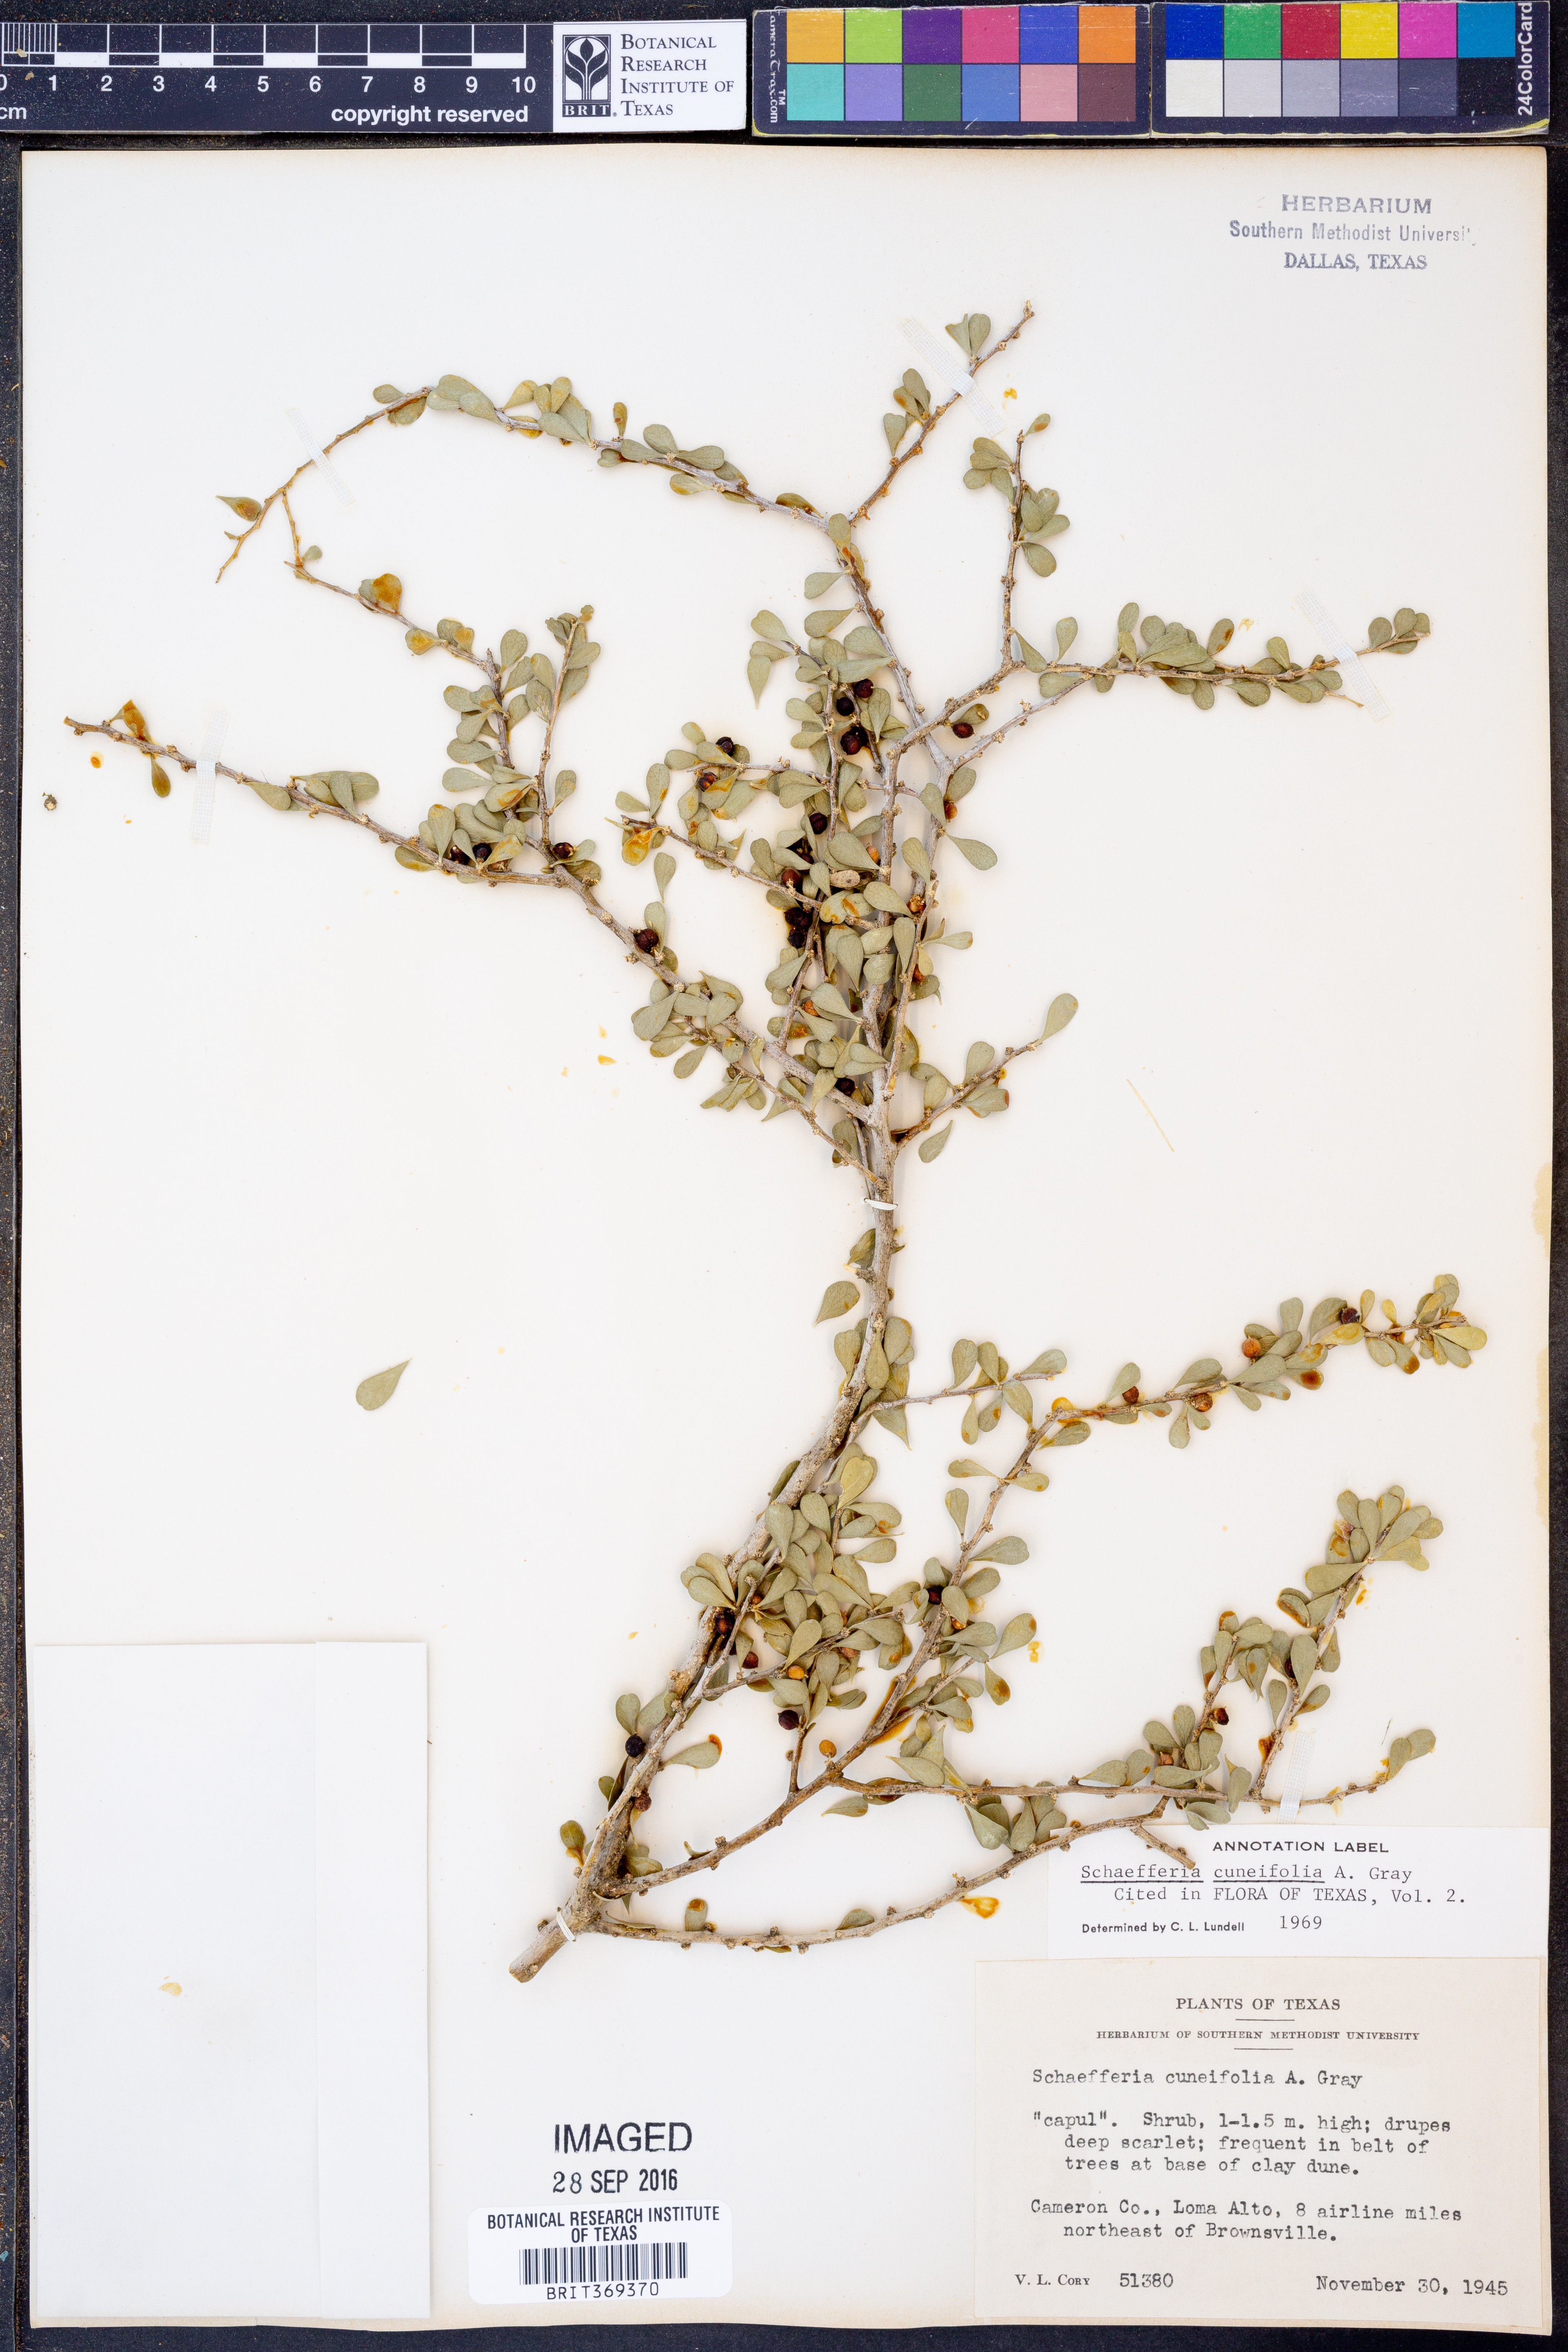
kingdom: Plantae
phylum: Tracheophyta
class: Magnoliopsida
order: Celastrales
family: Celastraceae
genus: Schaefferia
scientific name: Schaefferia cuneifolia
